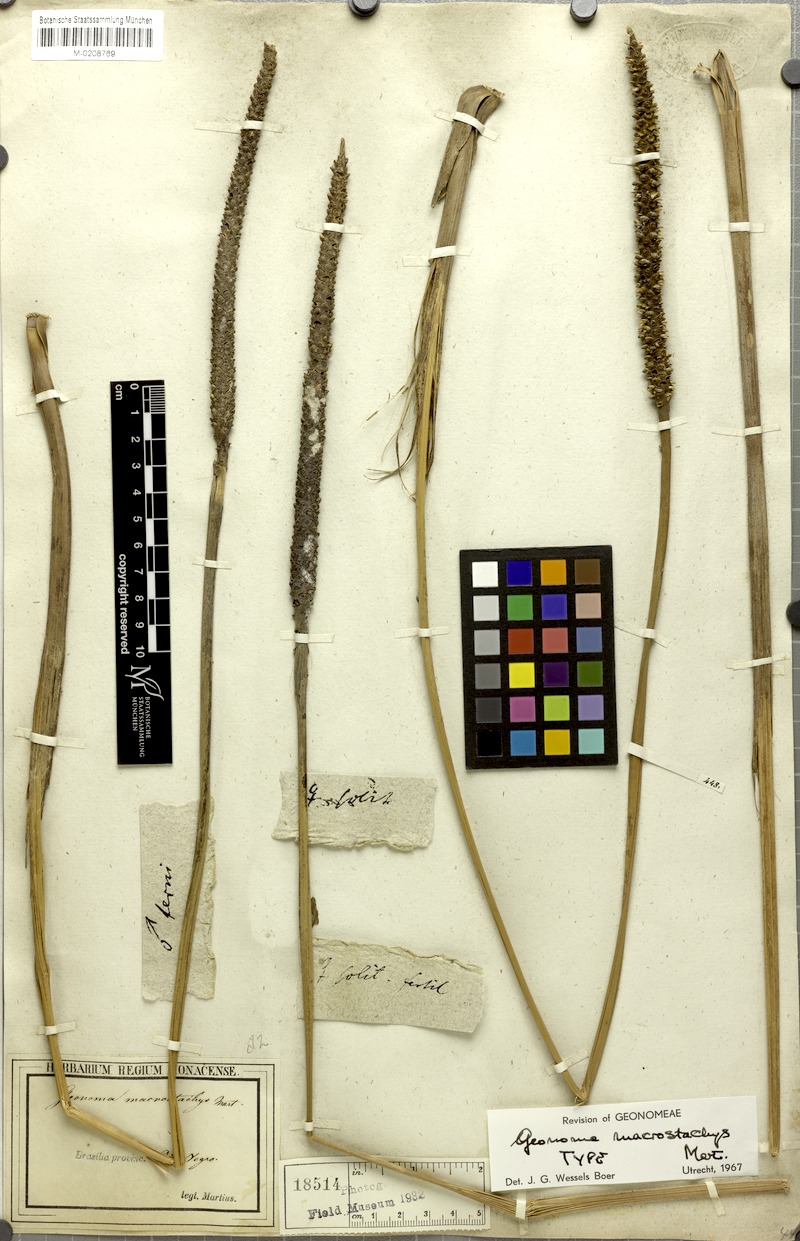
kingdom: Plantae
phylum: Tracheophyta
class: Liliopsida
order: Arecales
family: Arecaceae
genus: Geonoma
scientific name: Geonoma macrostachys
